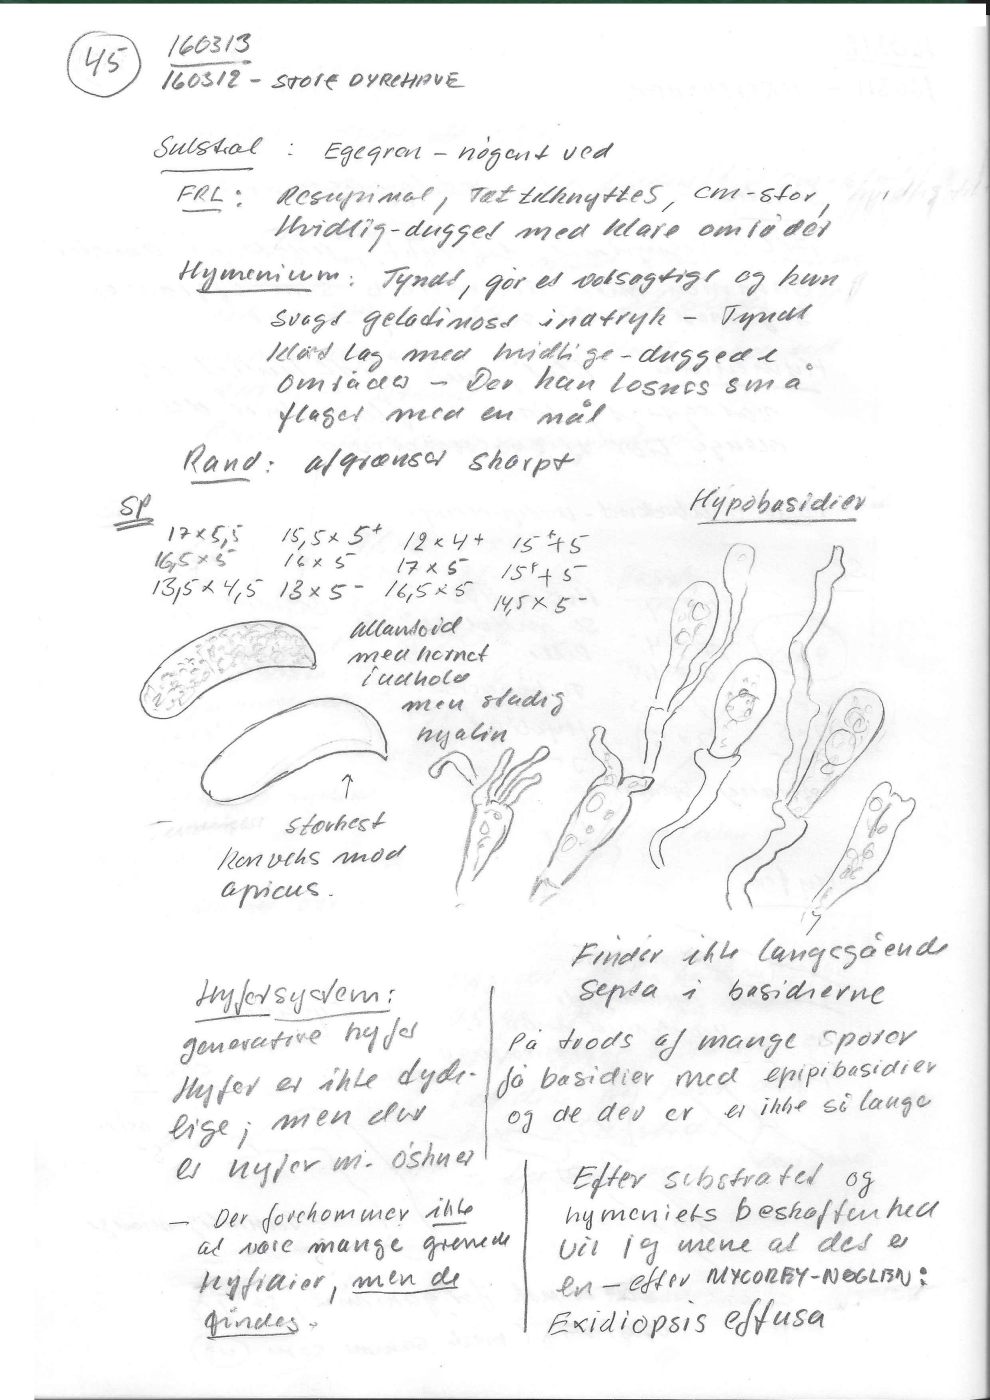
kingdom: Fungi
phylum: Basidiomycota
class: Tremellomycetes
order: Tremellales
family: Exidiaceae
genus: Exidiopsis
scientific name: Exidiopsis effusa
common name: smuk bævrehinde
